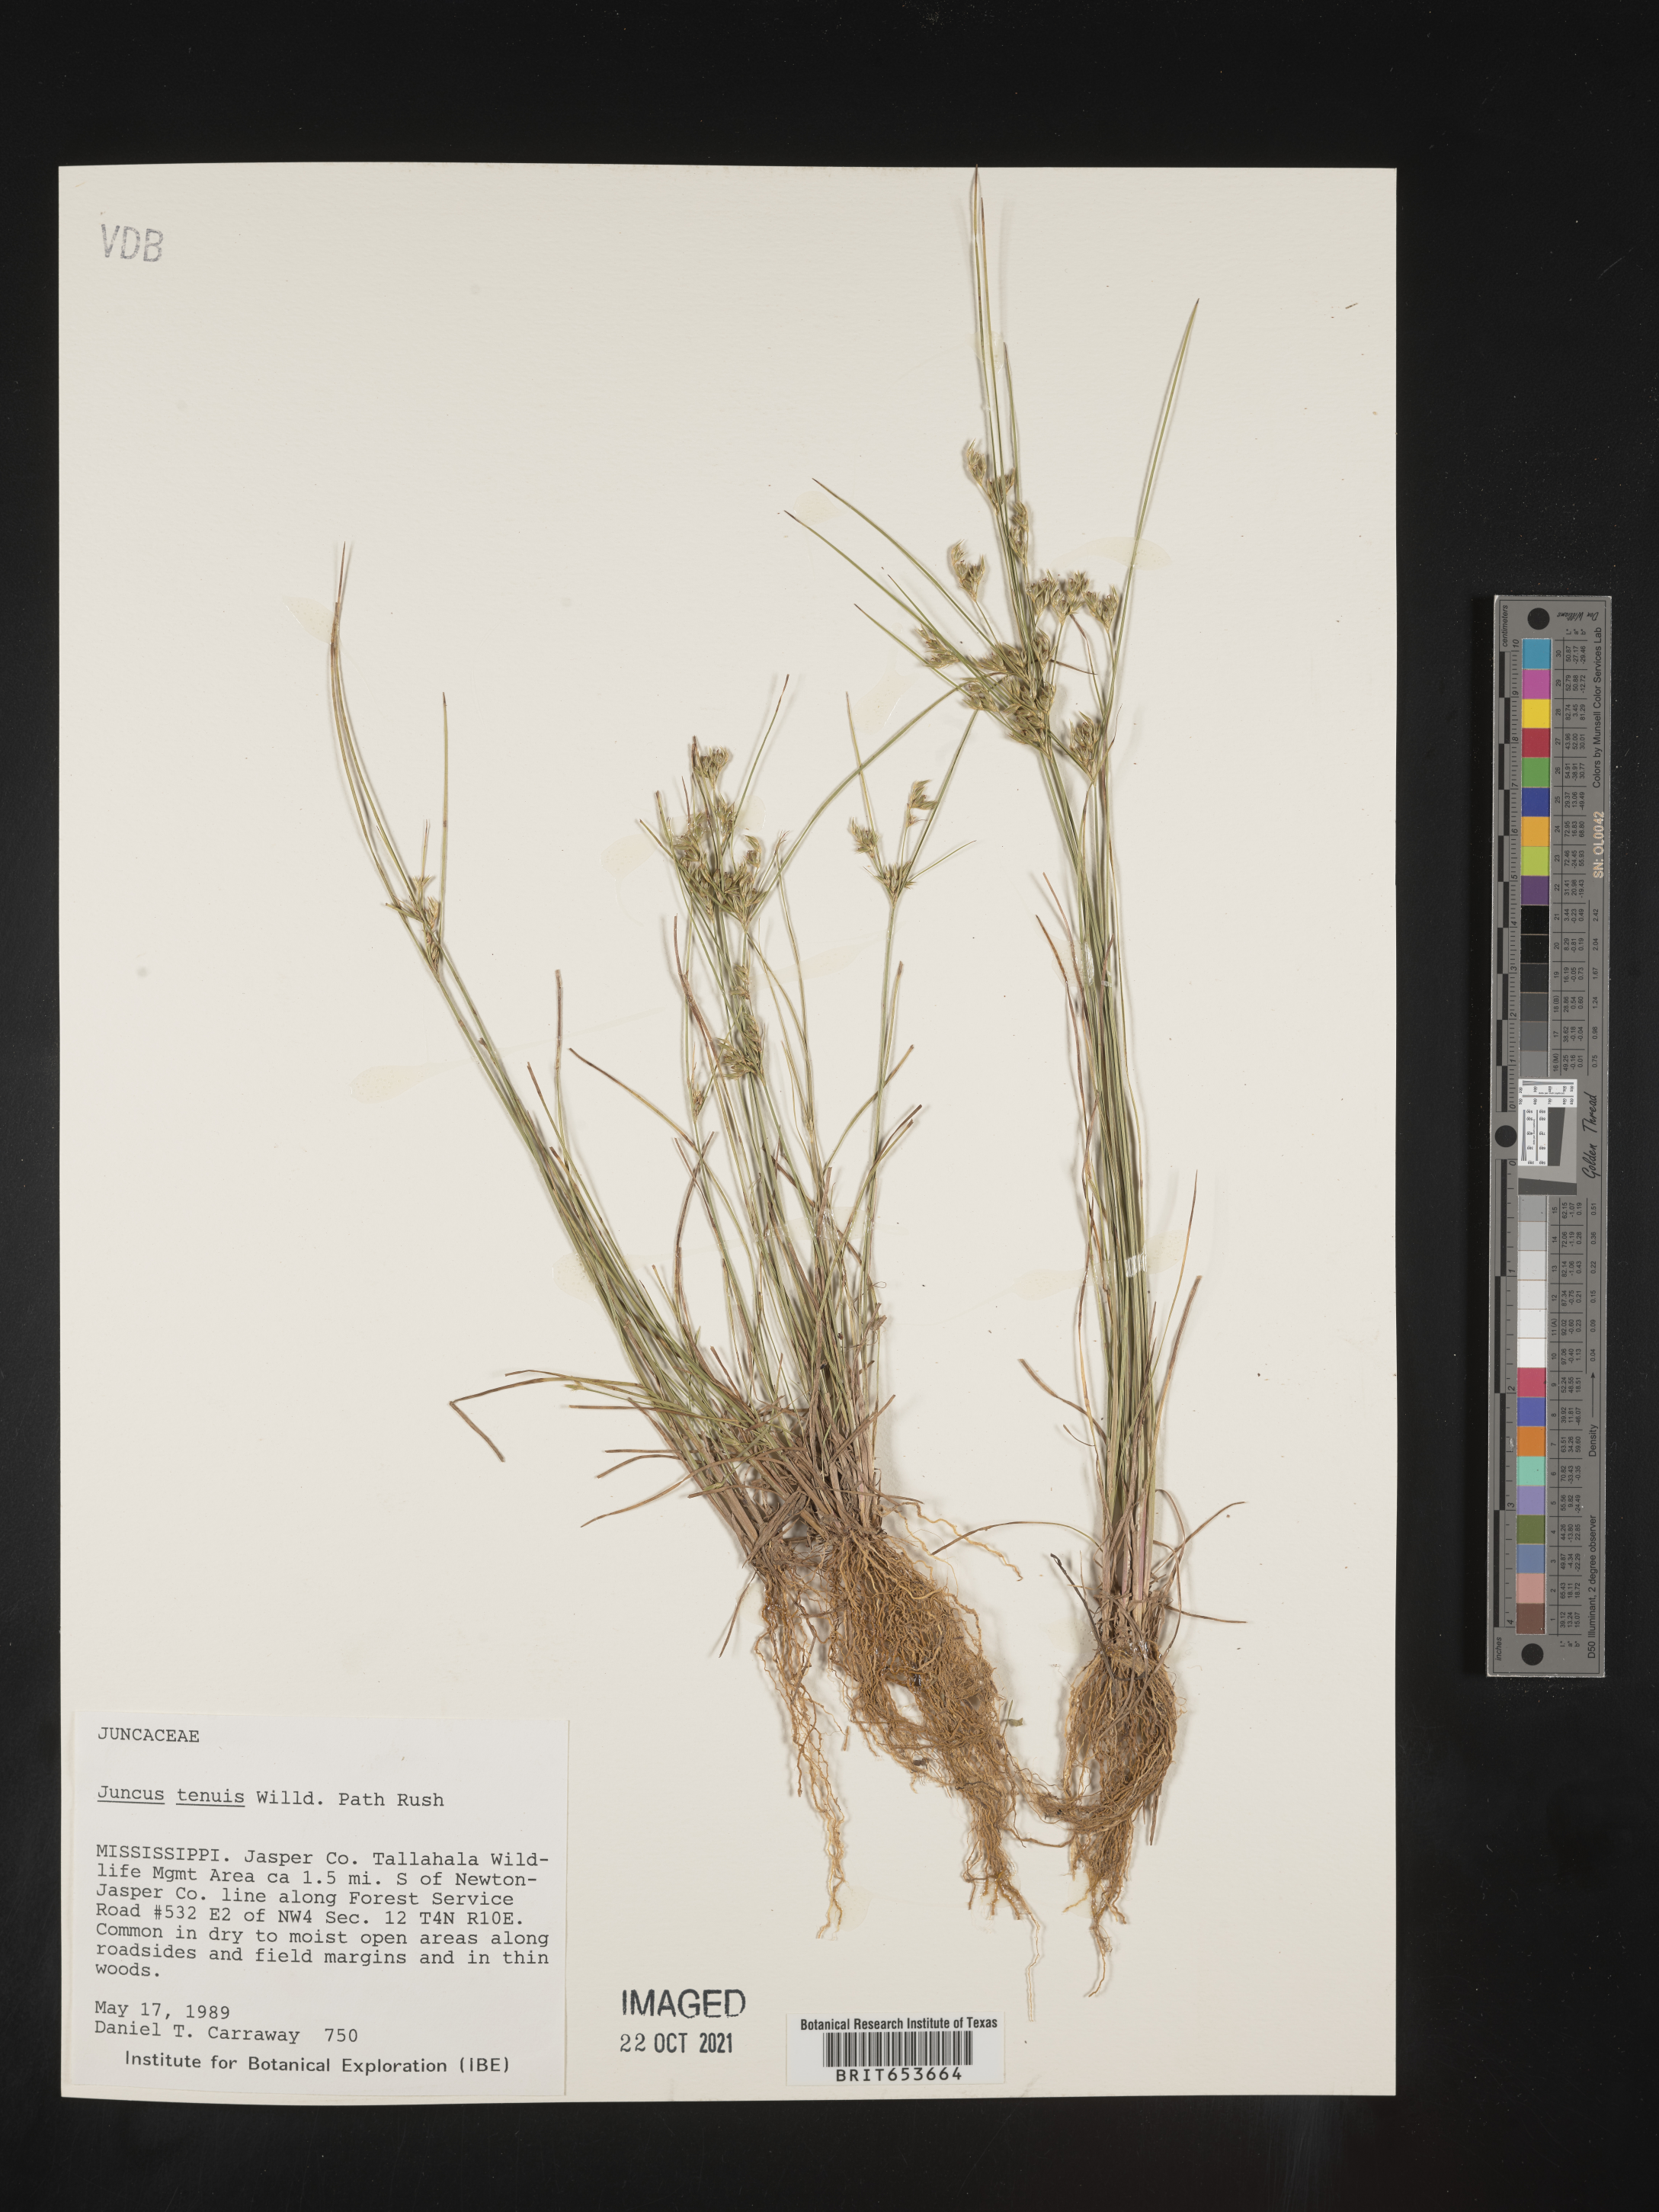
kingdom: Plantae
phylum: Tracheophyta
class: Liliopsida
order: Poales
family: Juncaceae
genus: Juncus
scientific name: Juncus tenuis
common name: Slender rush
